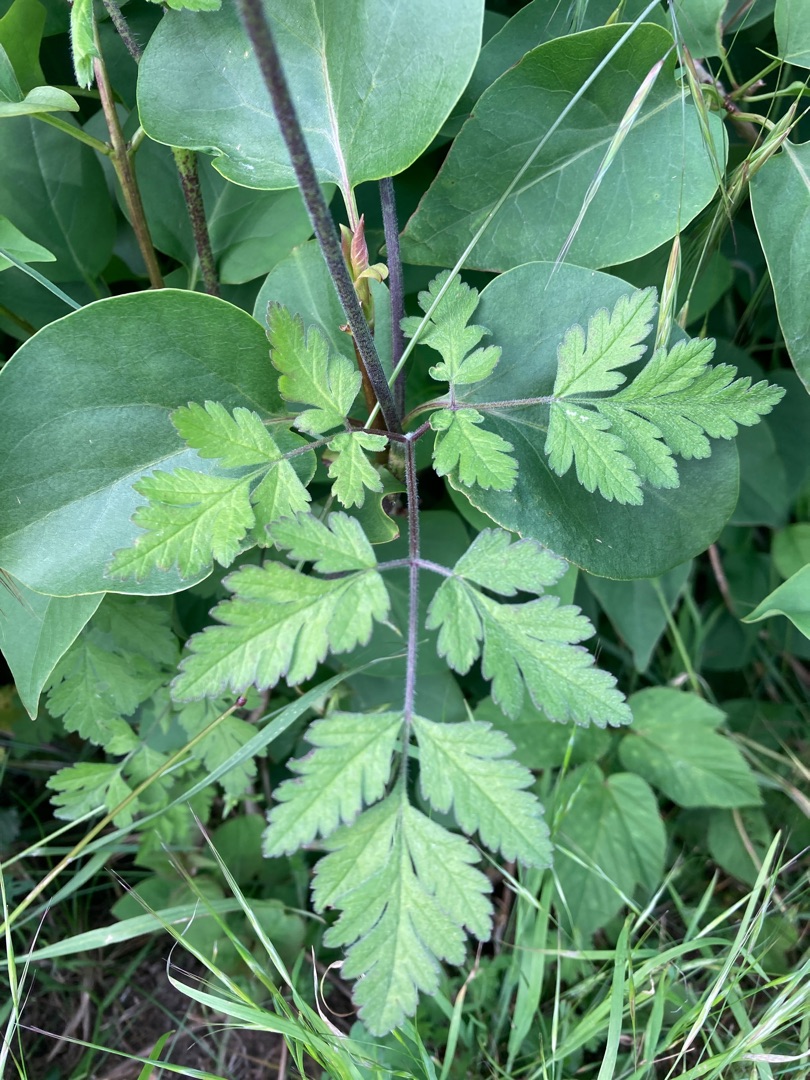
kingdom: Plantae
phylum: Tracheophyta
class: Magnoliopsida
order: Apiales
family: Apiaceae
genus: Chaerophyllum
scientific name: Chaerophyllum temulum
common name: Almindelig hulsvøb
